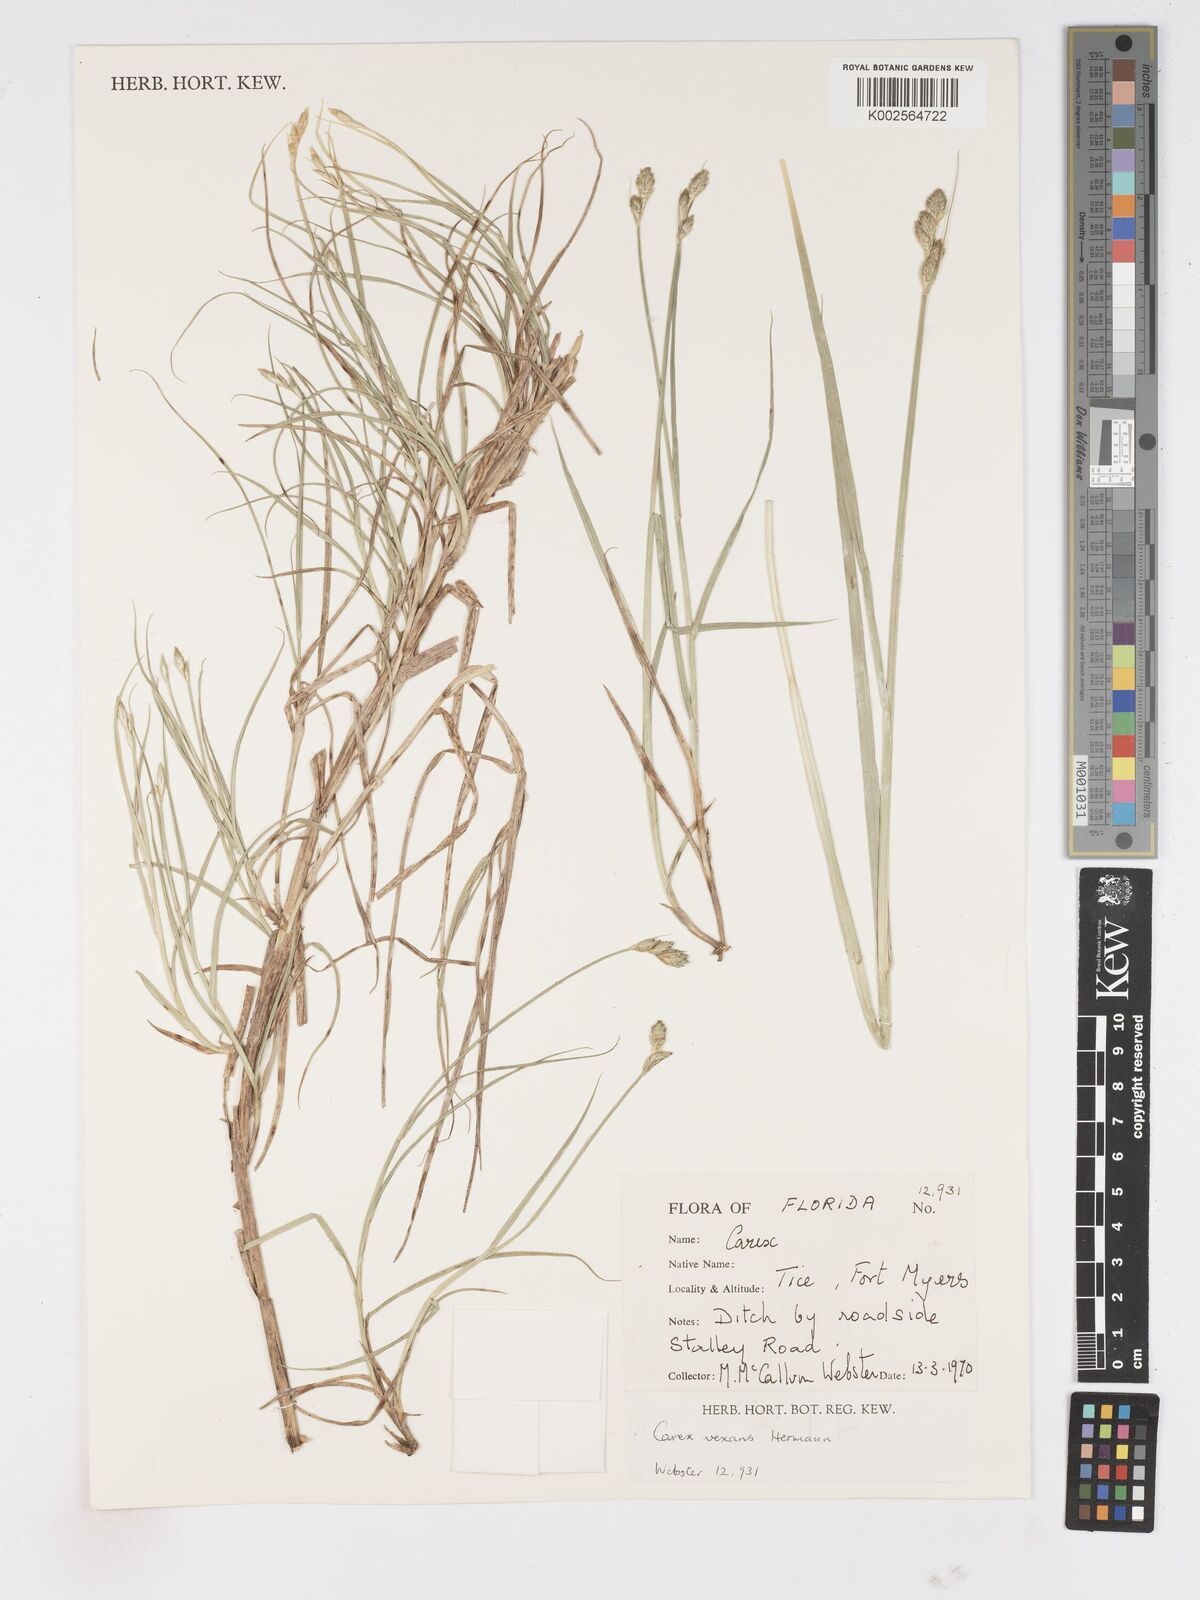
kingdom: Plantae
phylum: Tracheophyta
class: Liliopsida
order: Poales
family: Cyperaceae
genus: Carex
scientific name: Carex vexans
